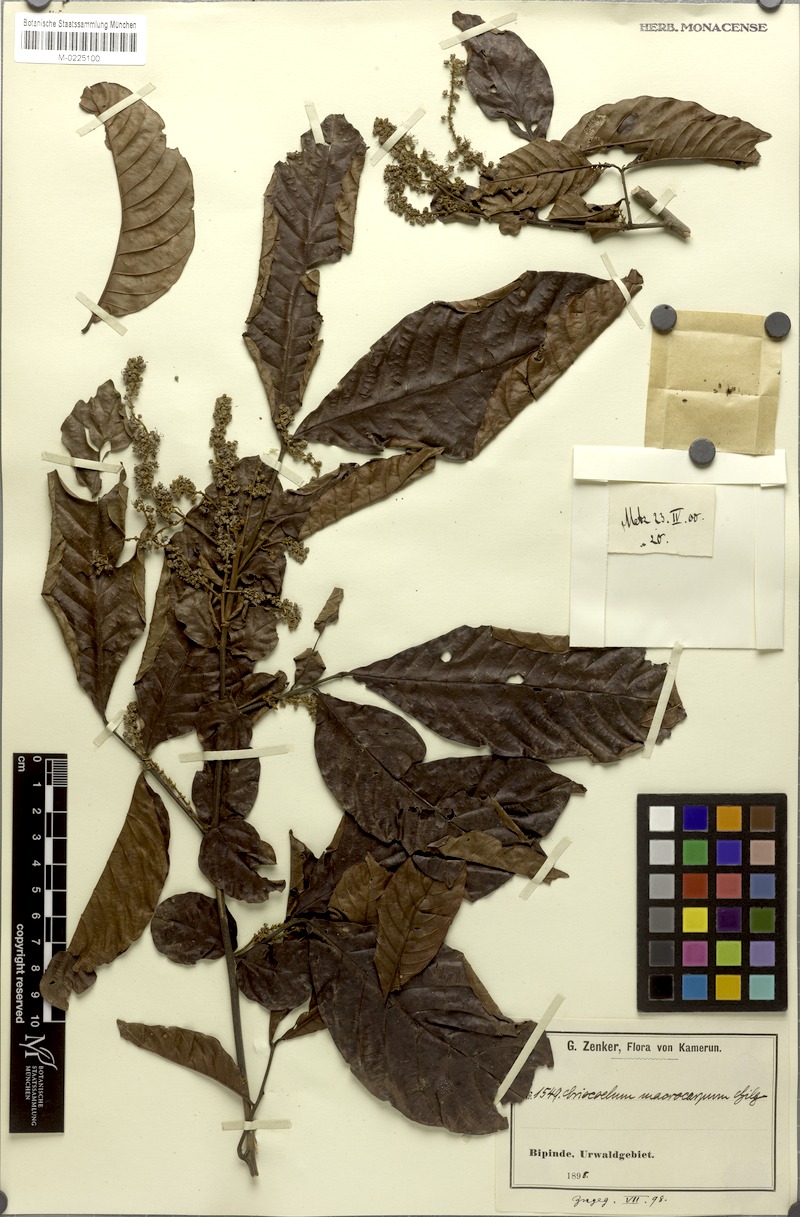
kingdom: Plantae
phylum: Tracheophyta
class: Magnoliopsida
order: Sapindales
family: Sapindaceae
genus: Eriocoelum
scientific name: Eriocoelum macrocarpum
